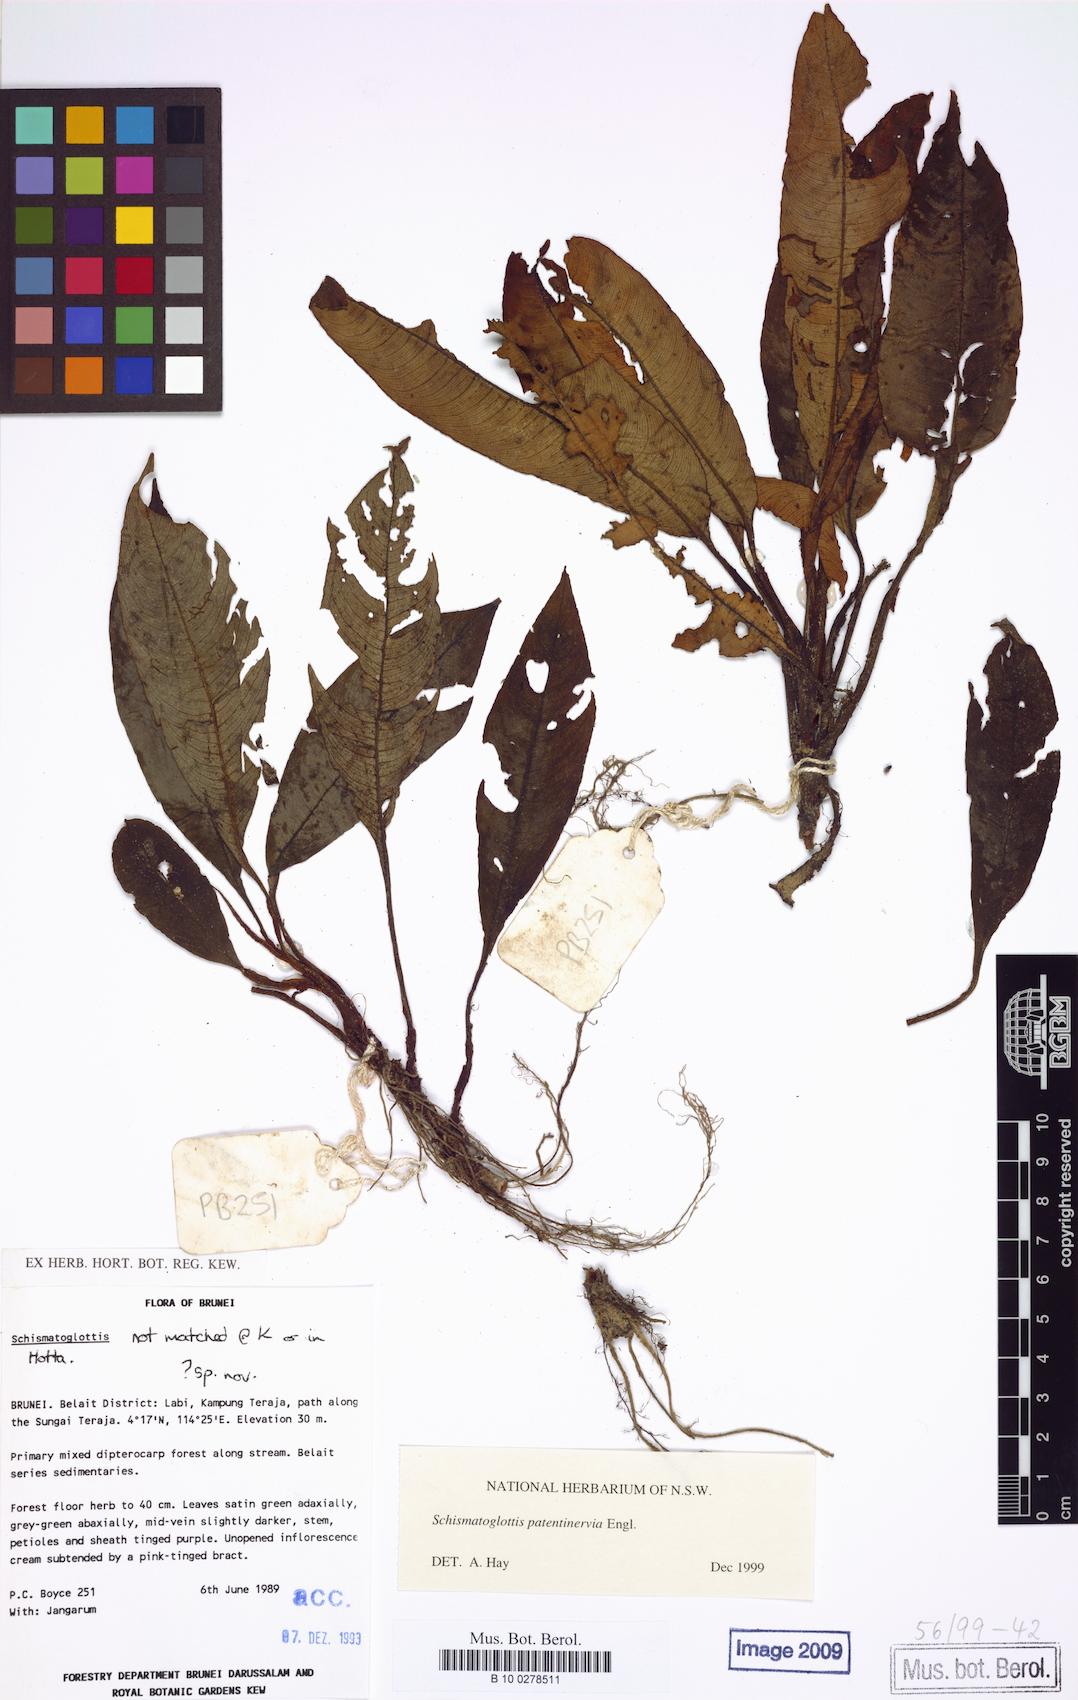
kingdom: Plantae
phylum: Tracheophyta
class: Liliopsida
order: Alismatales
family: Araceae
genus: Schismatoglottis
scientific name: Schismatoglottis patentinervia
